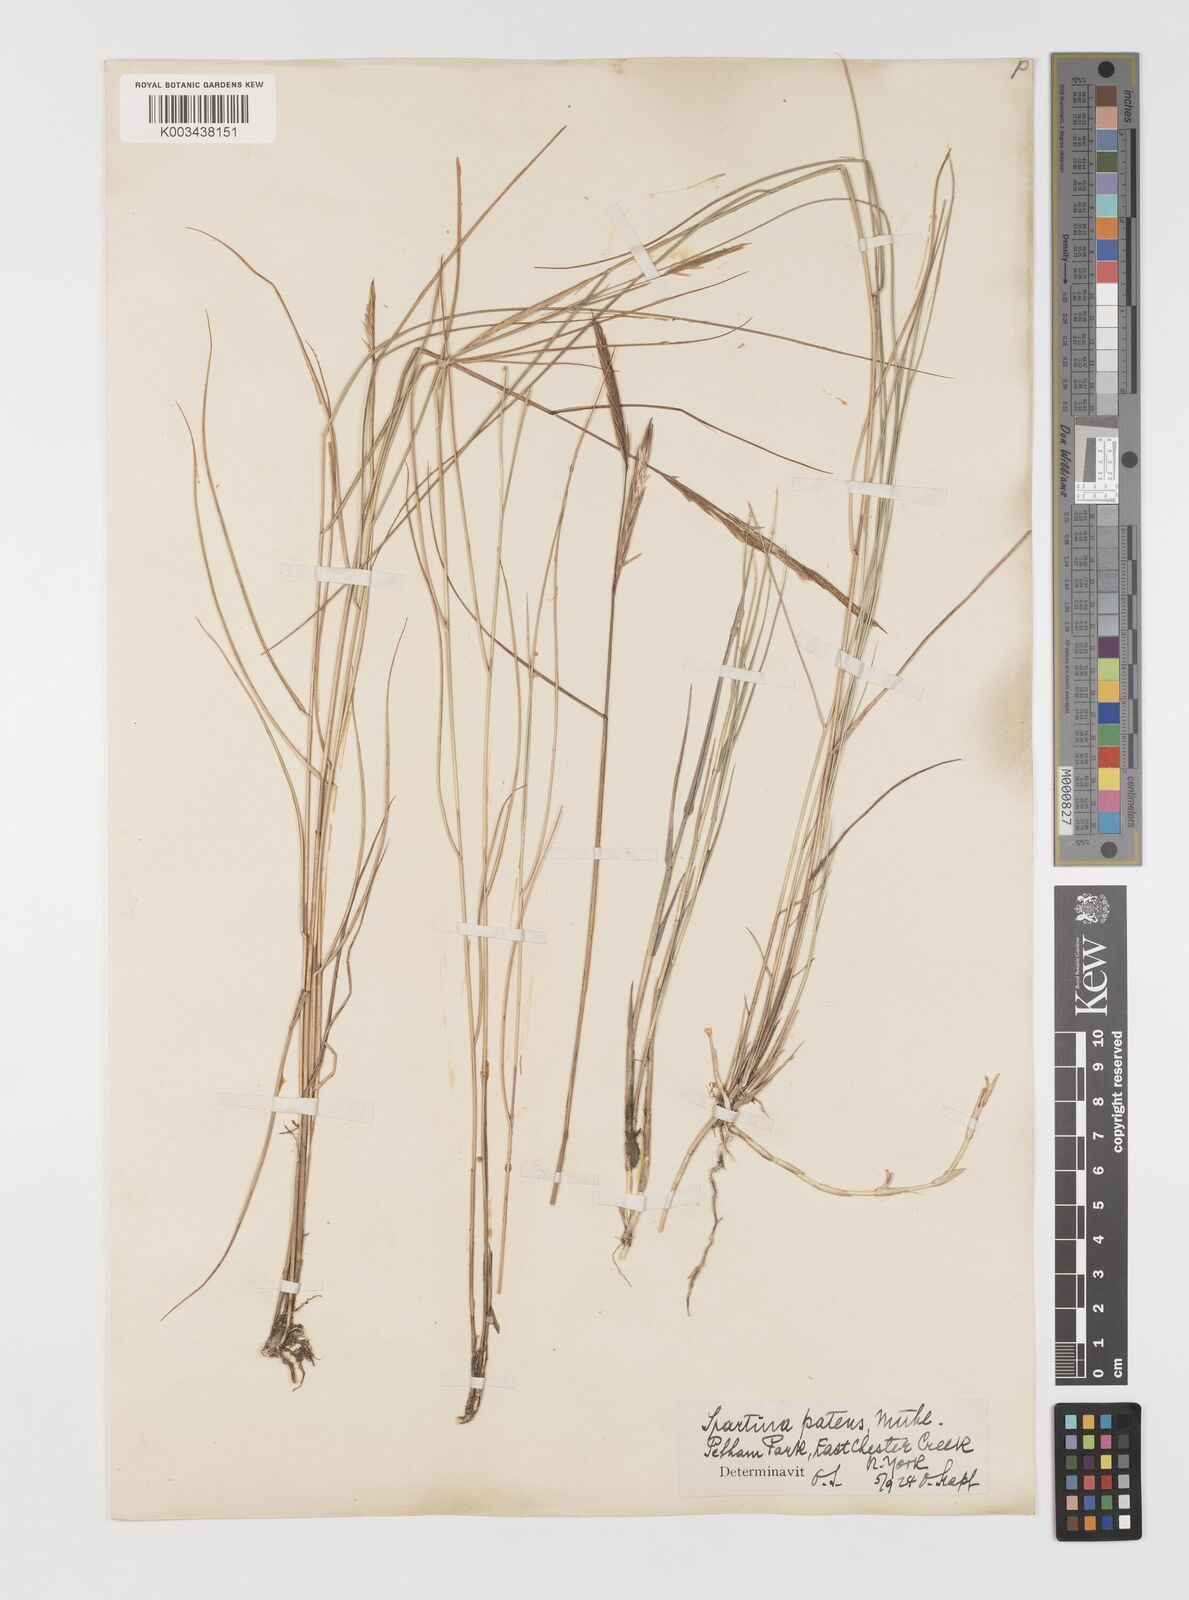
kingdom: Plantae
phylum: Tracheophyta
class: Liliopsida
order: Poales
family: Poaceae
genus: Sporobolus
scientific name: Sporobolus pumilus
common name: Highwater grass
